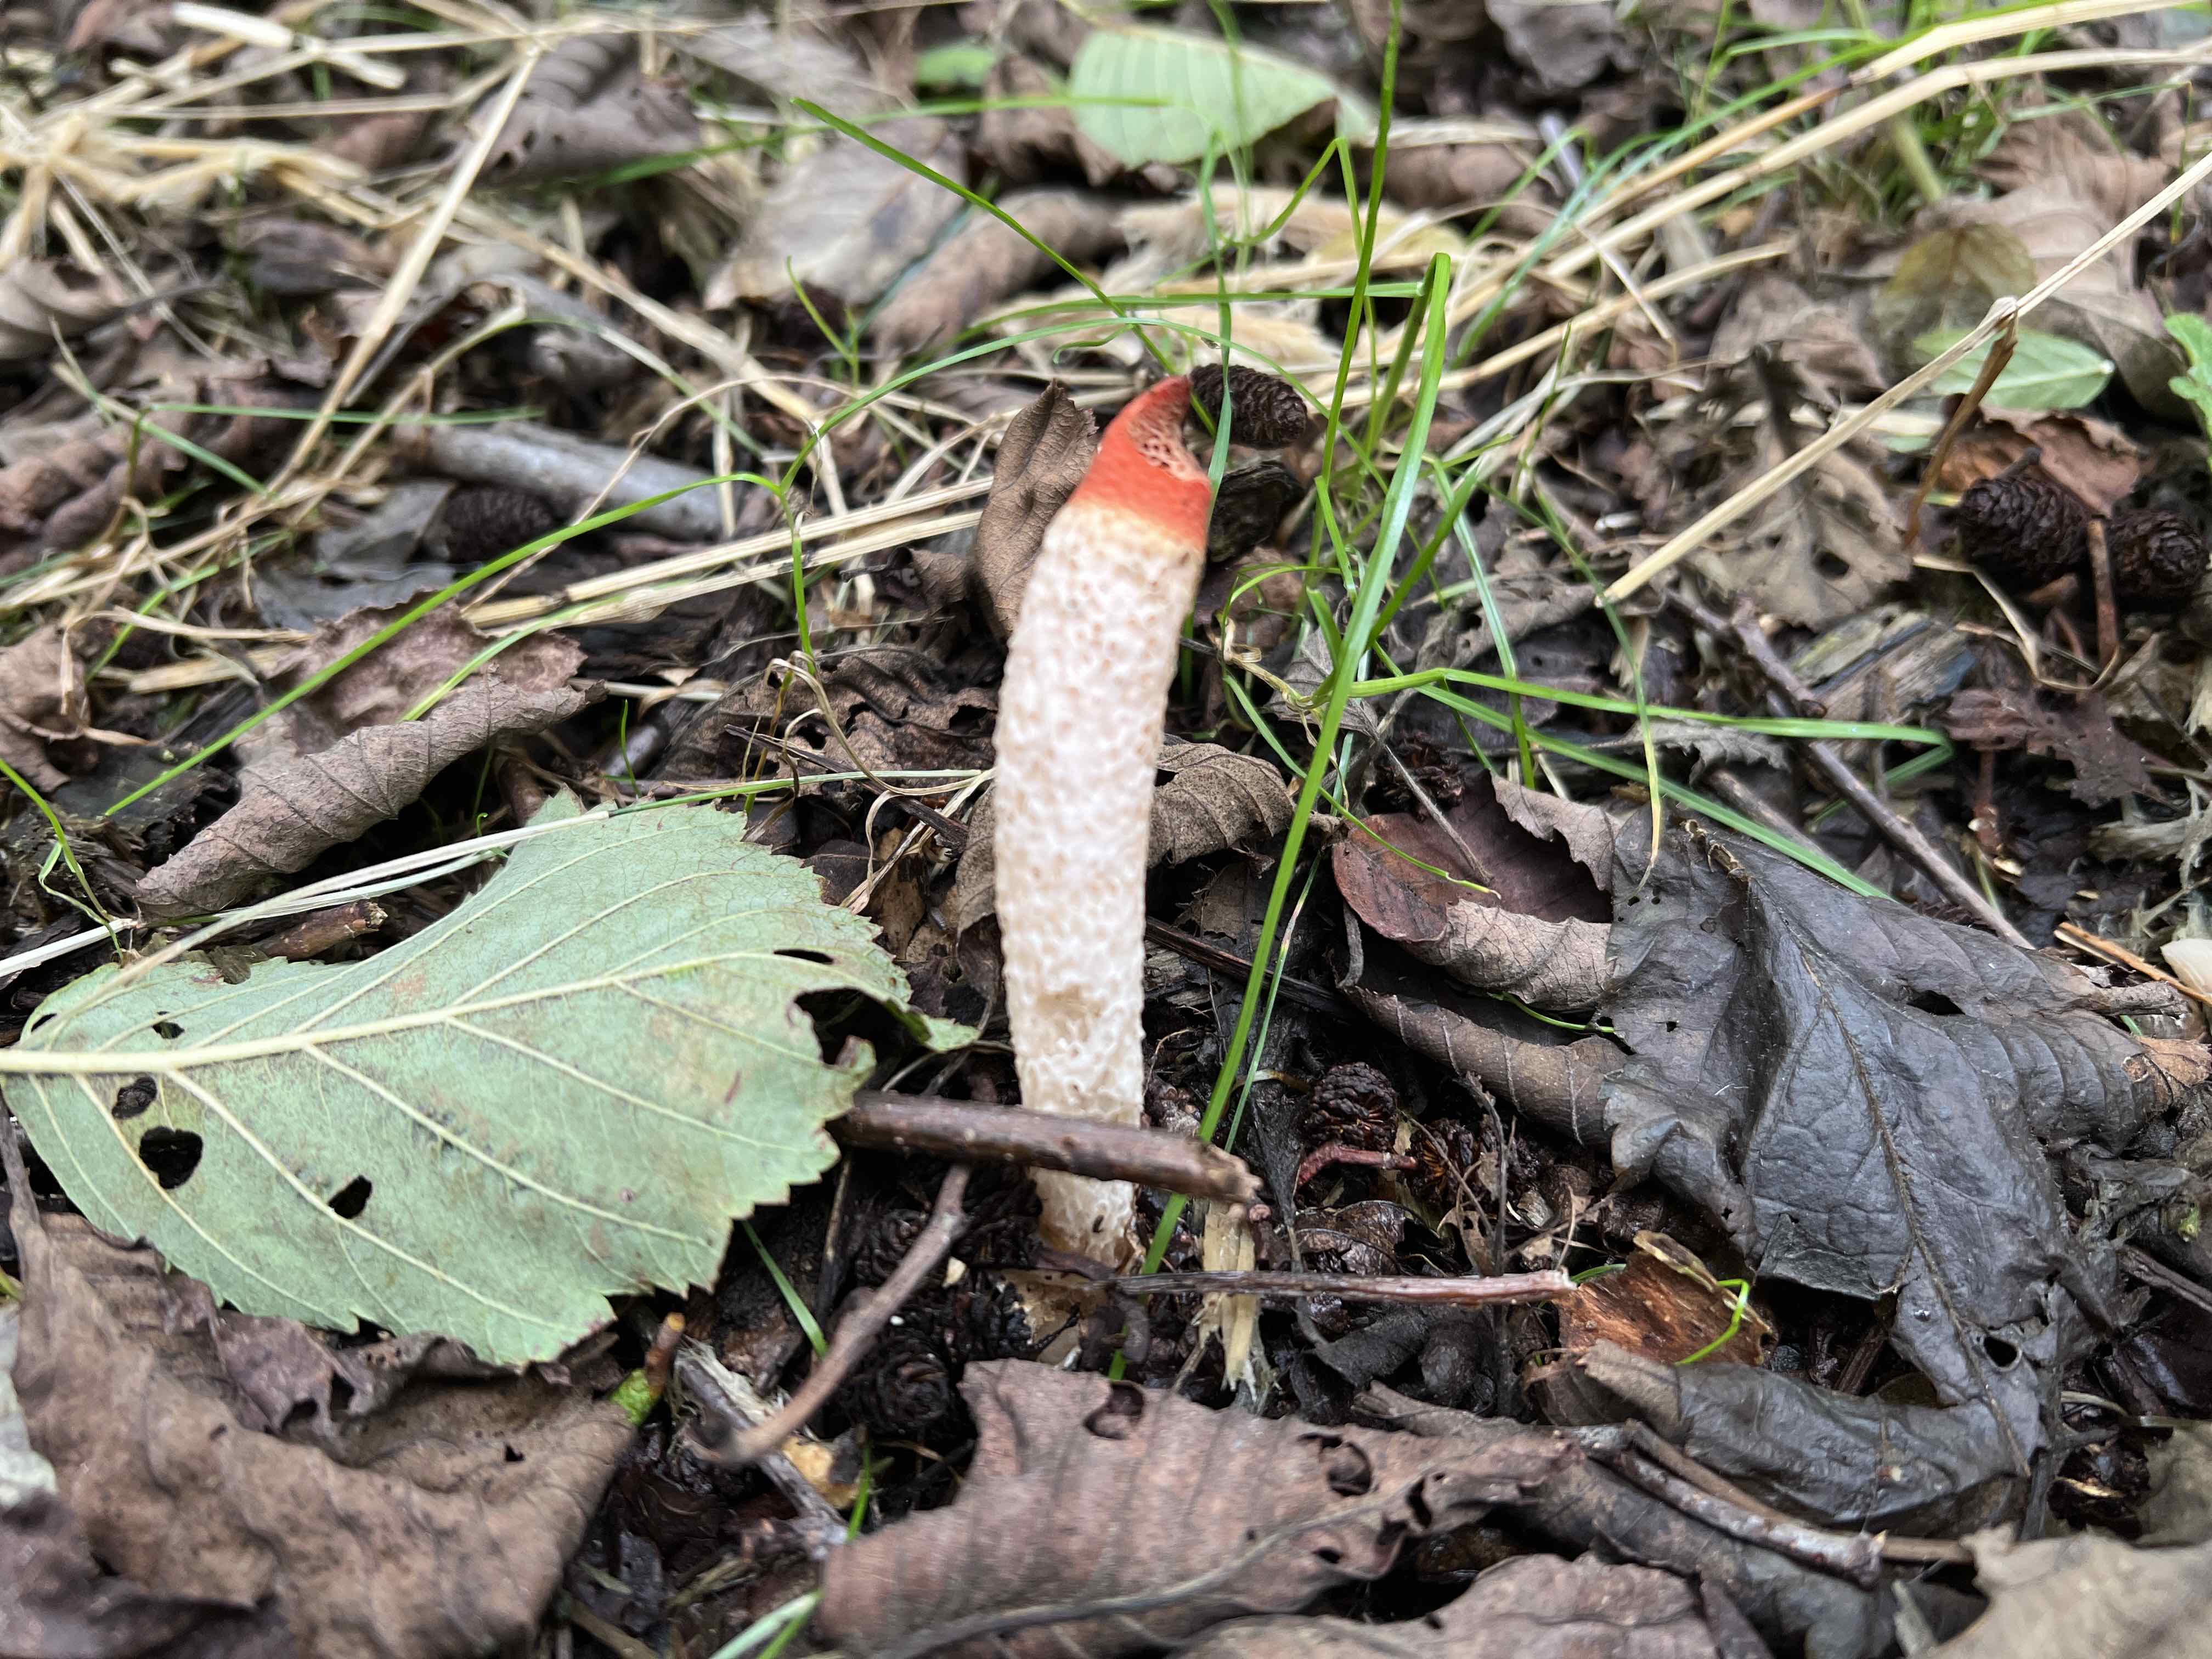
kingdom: Fungi
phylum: Basidiomycota
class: Agaricomycetes
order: Phallales
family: Phallaceae
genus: Mutinus
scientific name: Mutinus caninus
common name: hunde-stinksvamp
